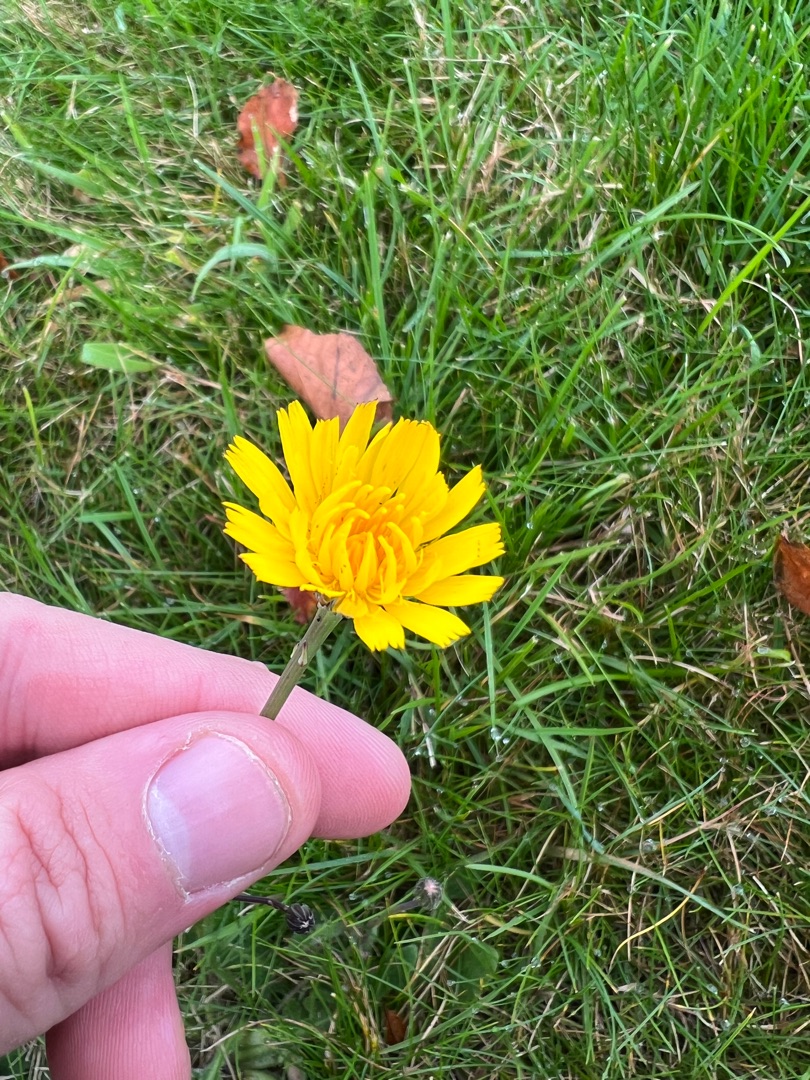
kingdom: Plantae
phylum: Tracheophyta
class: Magnoliopsida
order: Asterales
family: Asteraceae
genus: Hypochaeris
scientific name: Hypochaeris radicata
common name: Almindelig kongepen
